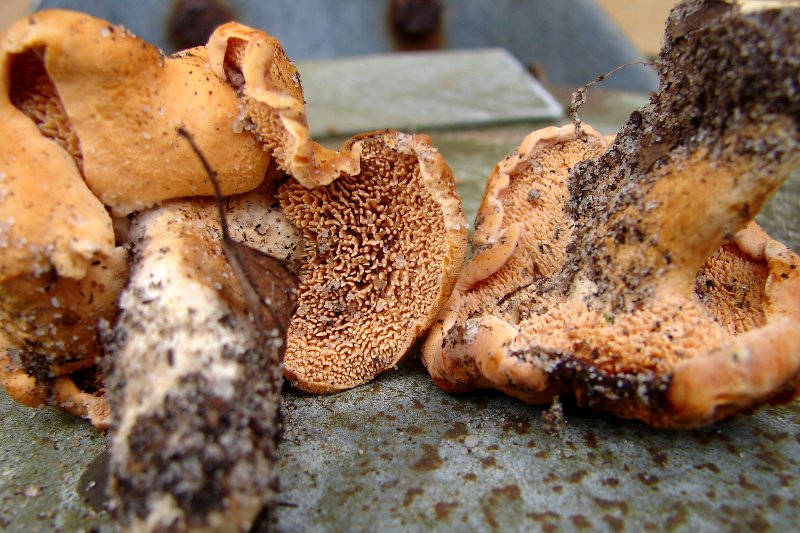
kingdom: Fungi
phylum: Basidiomycota
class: Agaricomycetes
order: Cantharellales
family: Hydnaceae
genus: Hydnum
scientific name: Hydnum ellipsosporum
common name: tandet pigsvamp
